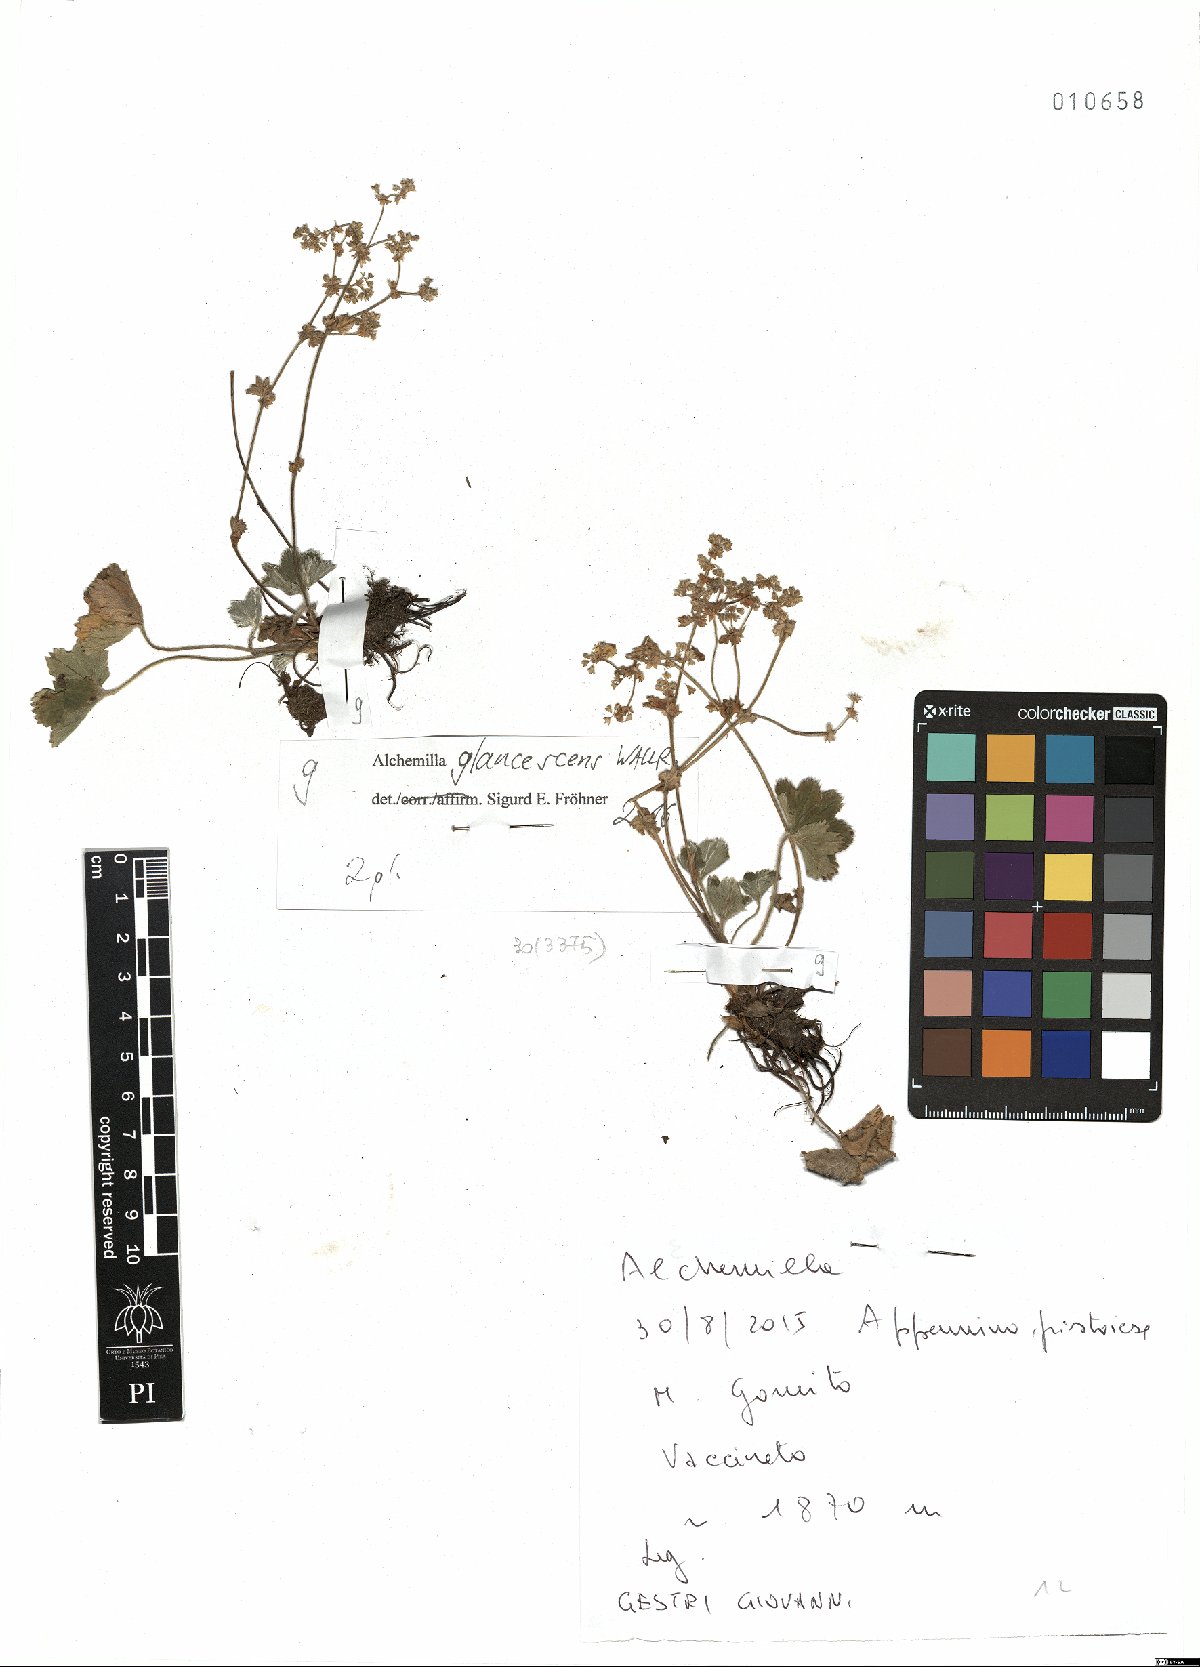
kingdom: Plantae
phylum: Tracheophyta
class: Magnoliopsida
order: Rosales
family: Rosaceae
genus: Alchemilla
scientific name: Alchemilla glaucescens
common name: Silky lady's mantle
